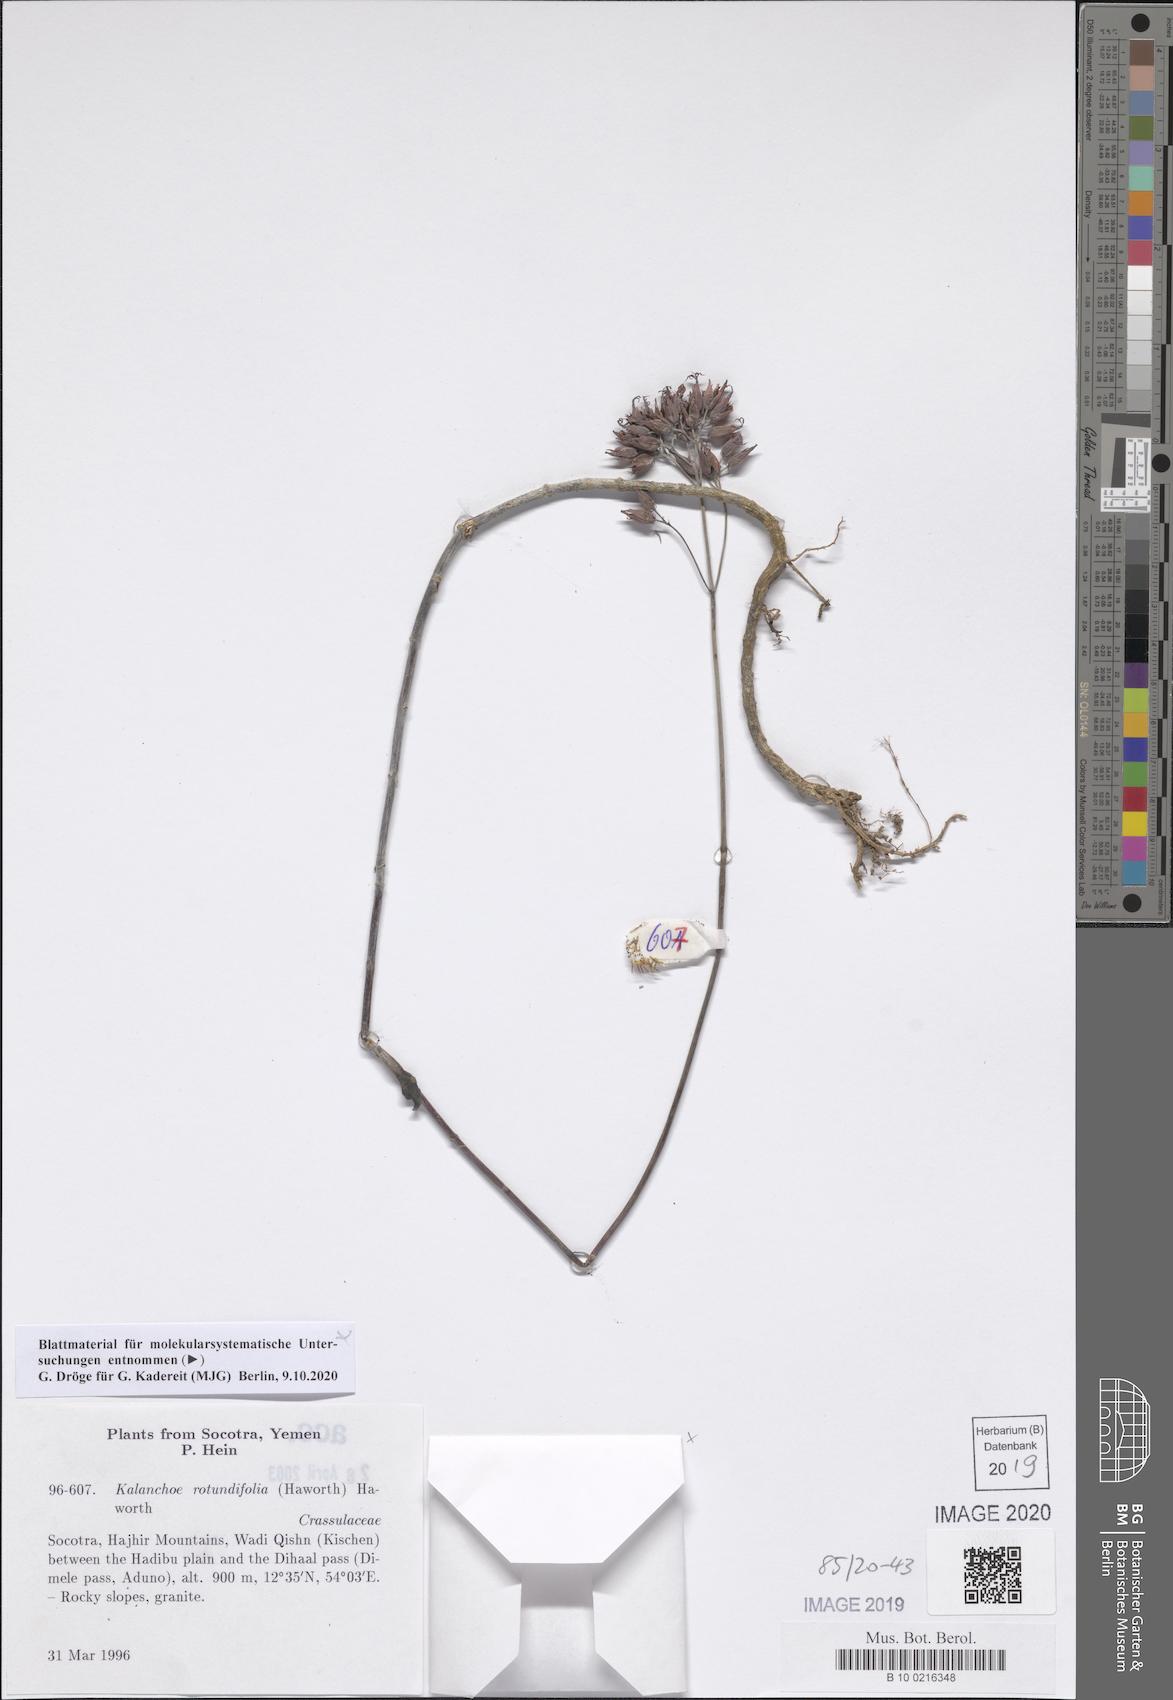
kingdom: Plantae
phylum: Tracheophyta
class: Magnoliopsida
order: Saxifragales
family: Crassulaceae
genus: Kalanchoe
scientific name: Kalanchoe rotundifolia
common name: Common kalanchoe
